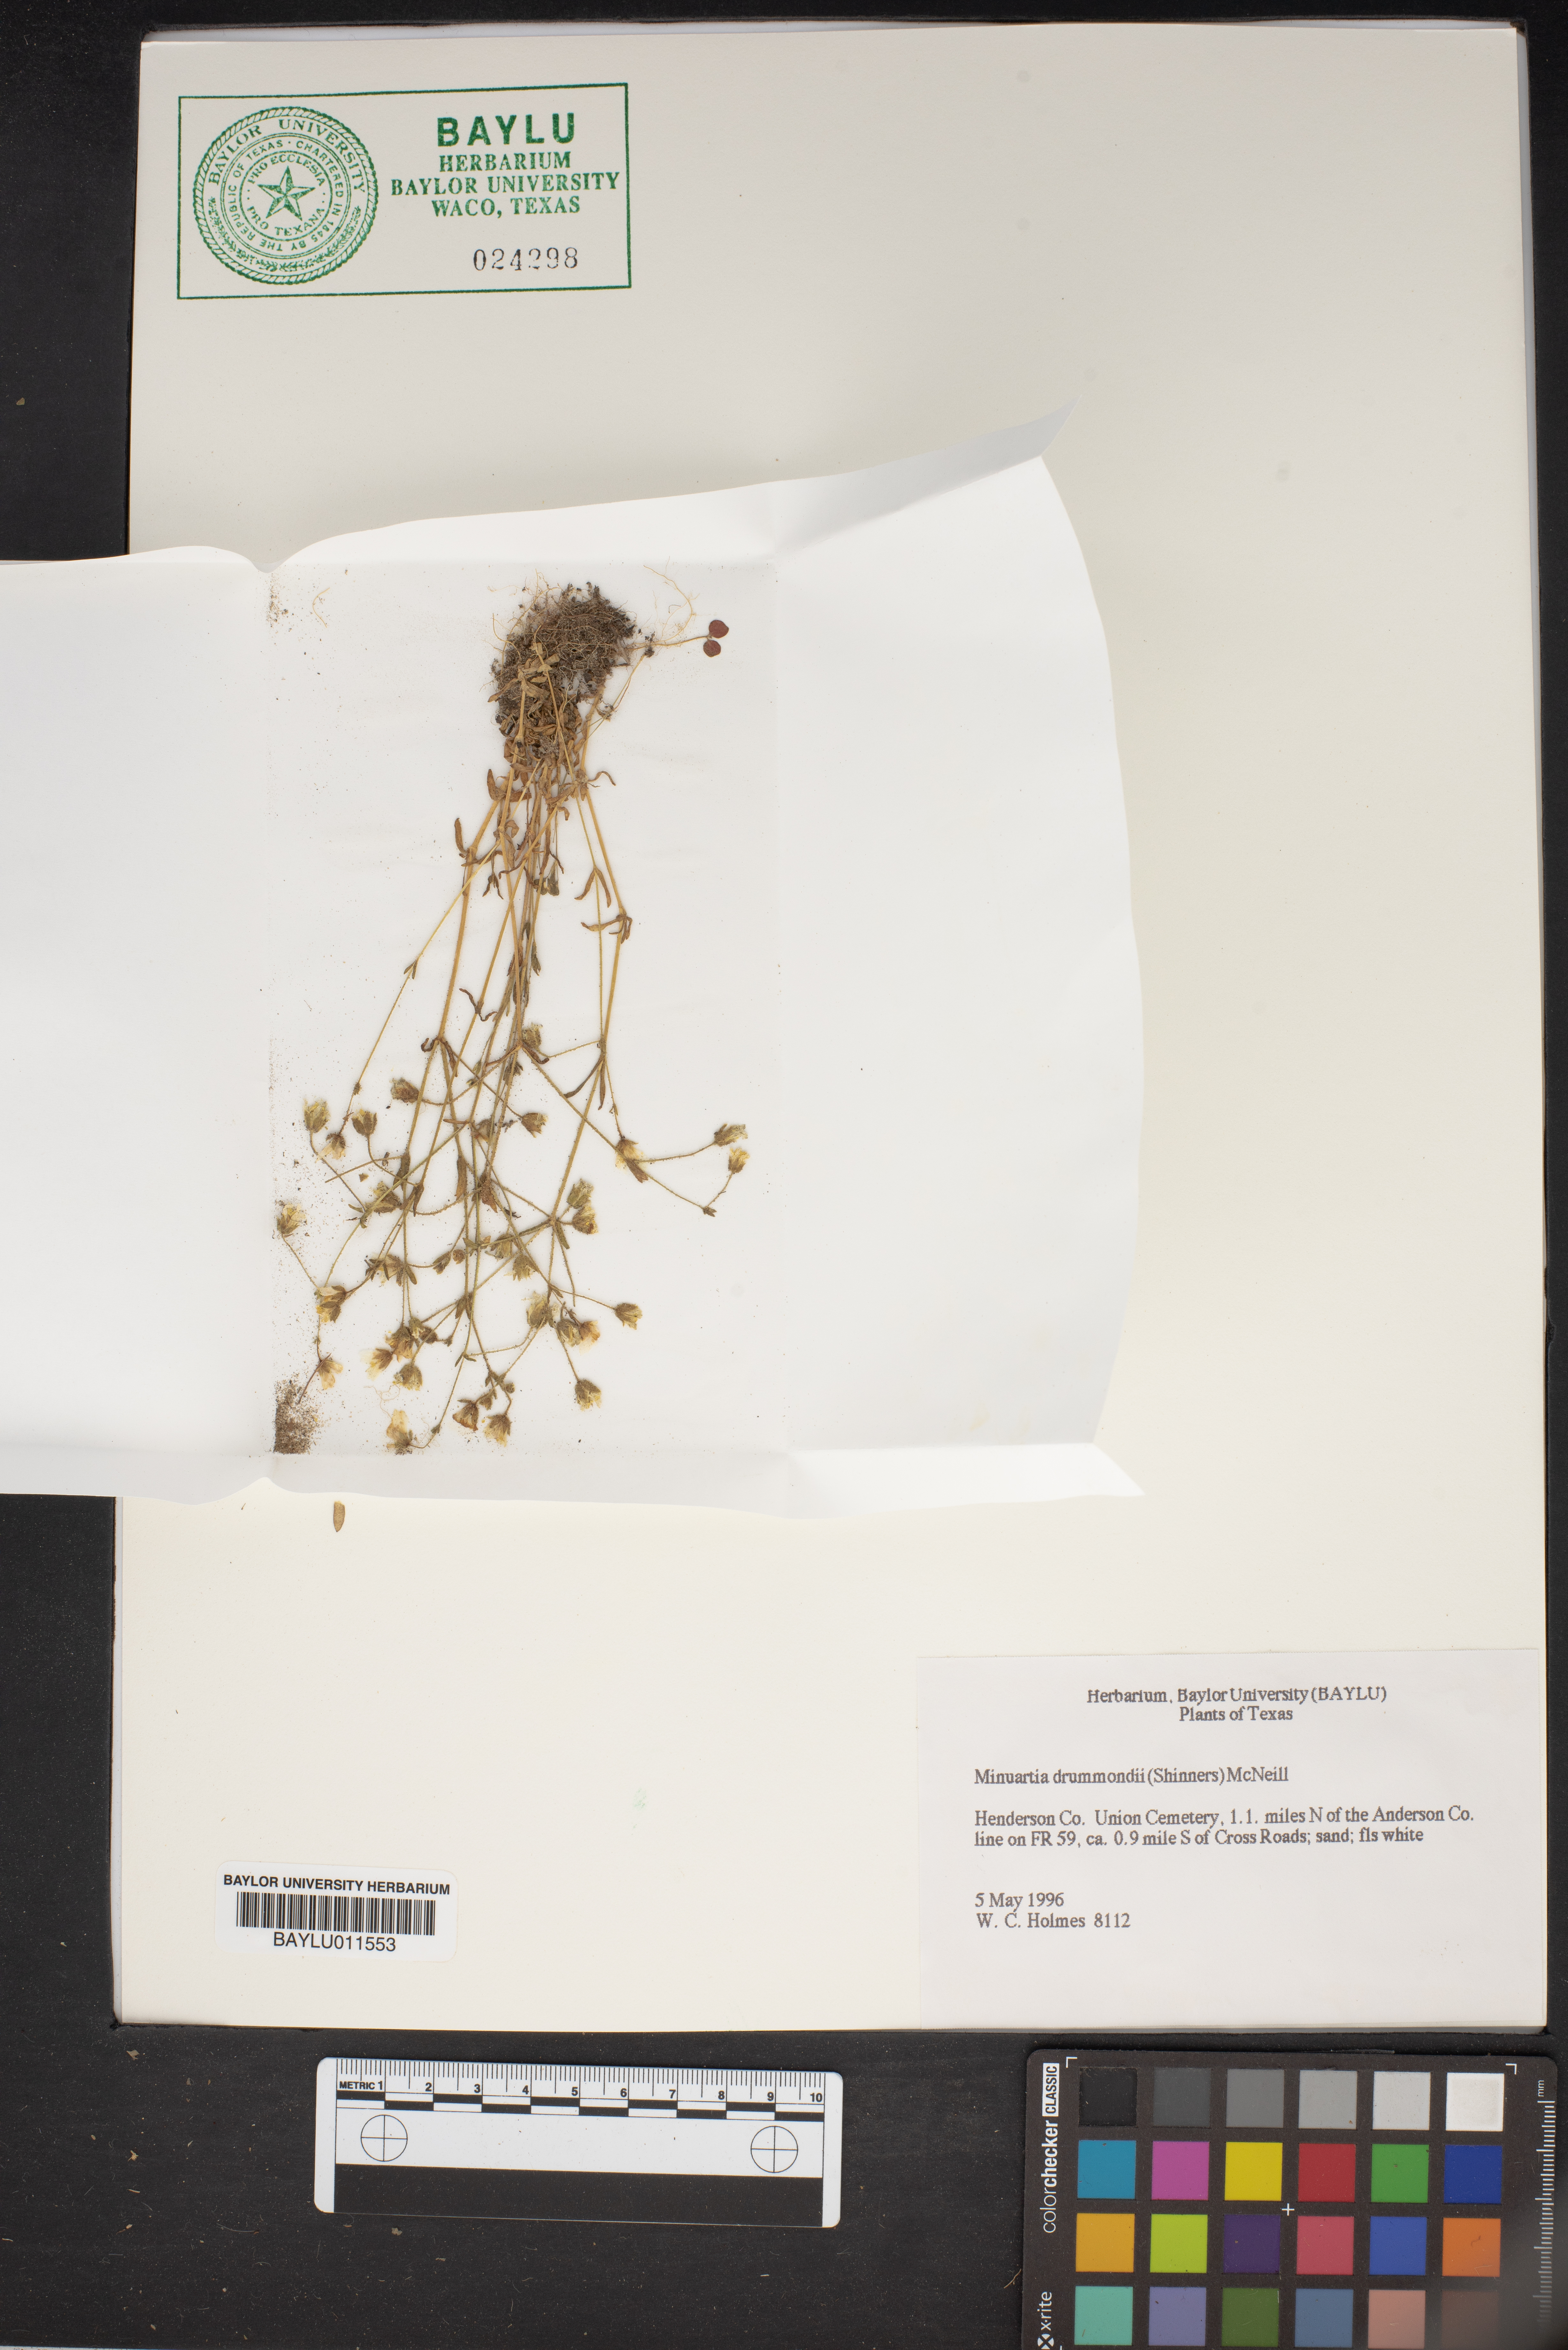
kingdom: Plantae
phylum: Tracheophyta
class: Magnoliopsida
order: Caryophyllales
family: Caryophyllaceae
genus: Geocarpon
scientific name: Geocarpon nuttallii
